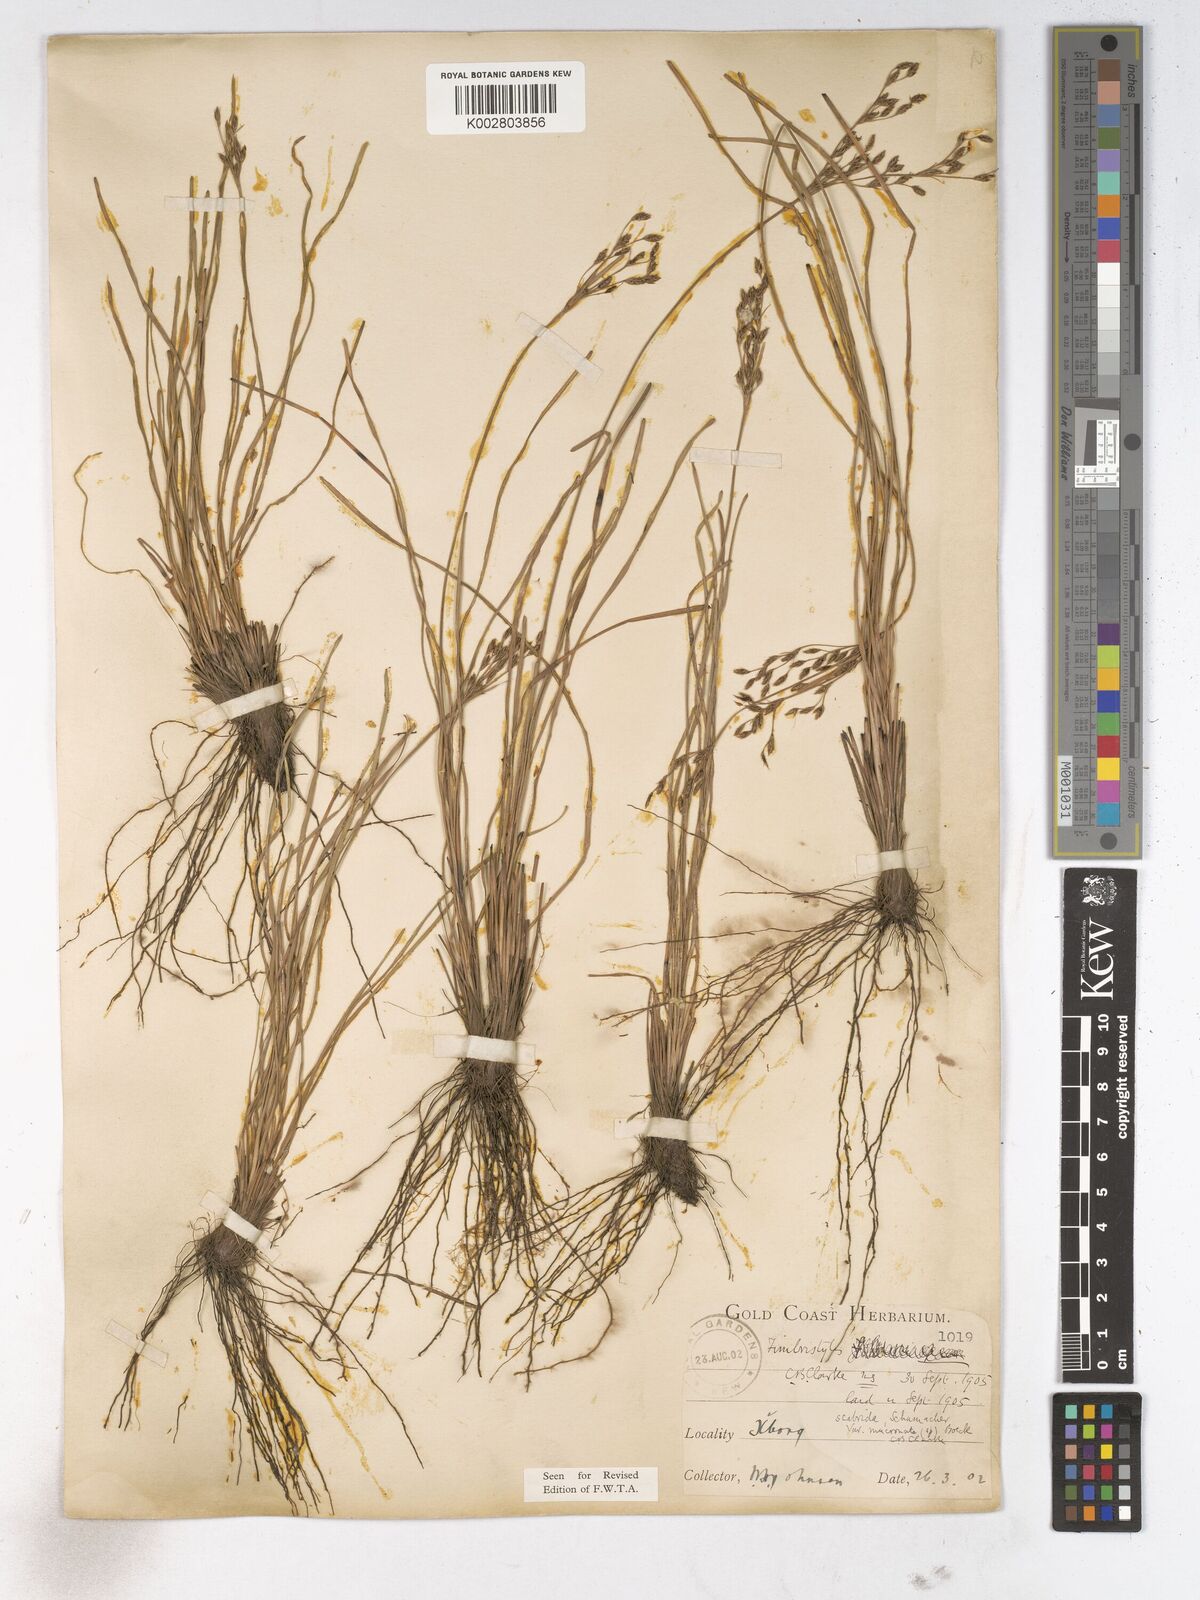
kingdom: Plantae
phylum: Tracheophyta
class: Liliopsida
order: Poales
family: Cyperaceae
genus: Fimbristylis
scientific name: Fimbristylis scabrida
